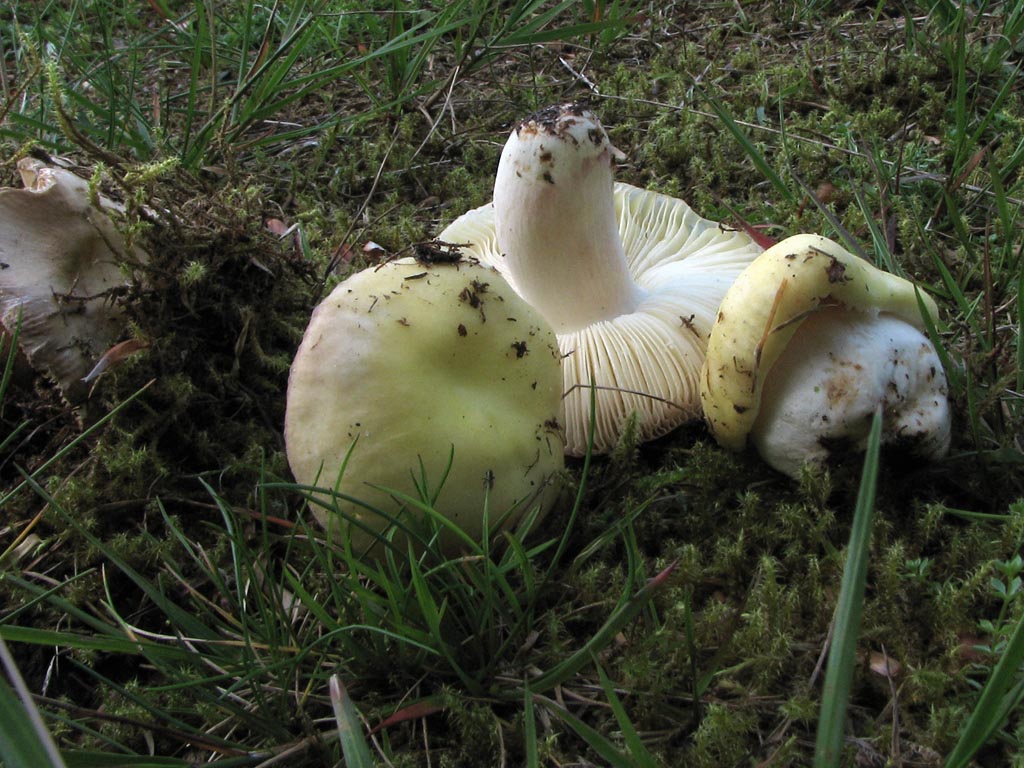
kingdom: Fungi
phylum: Basidiomycota
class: Agaricomycetes
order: Russulales
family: Russulaceae
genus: Russula
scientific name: Russula violeipes
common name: ferskengul skørhat
